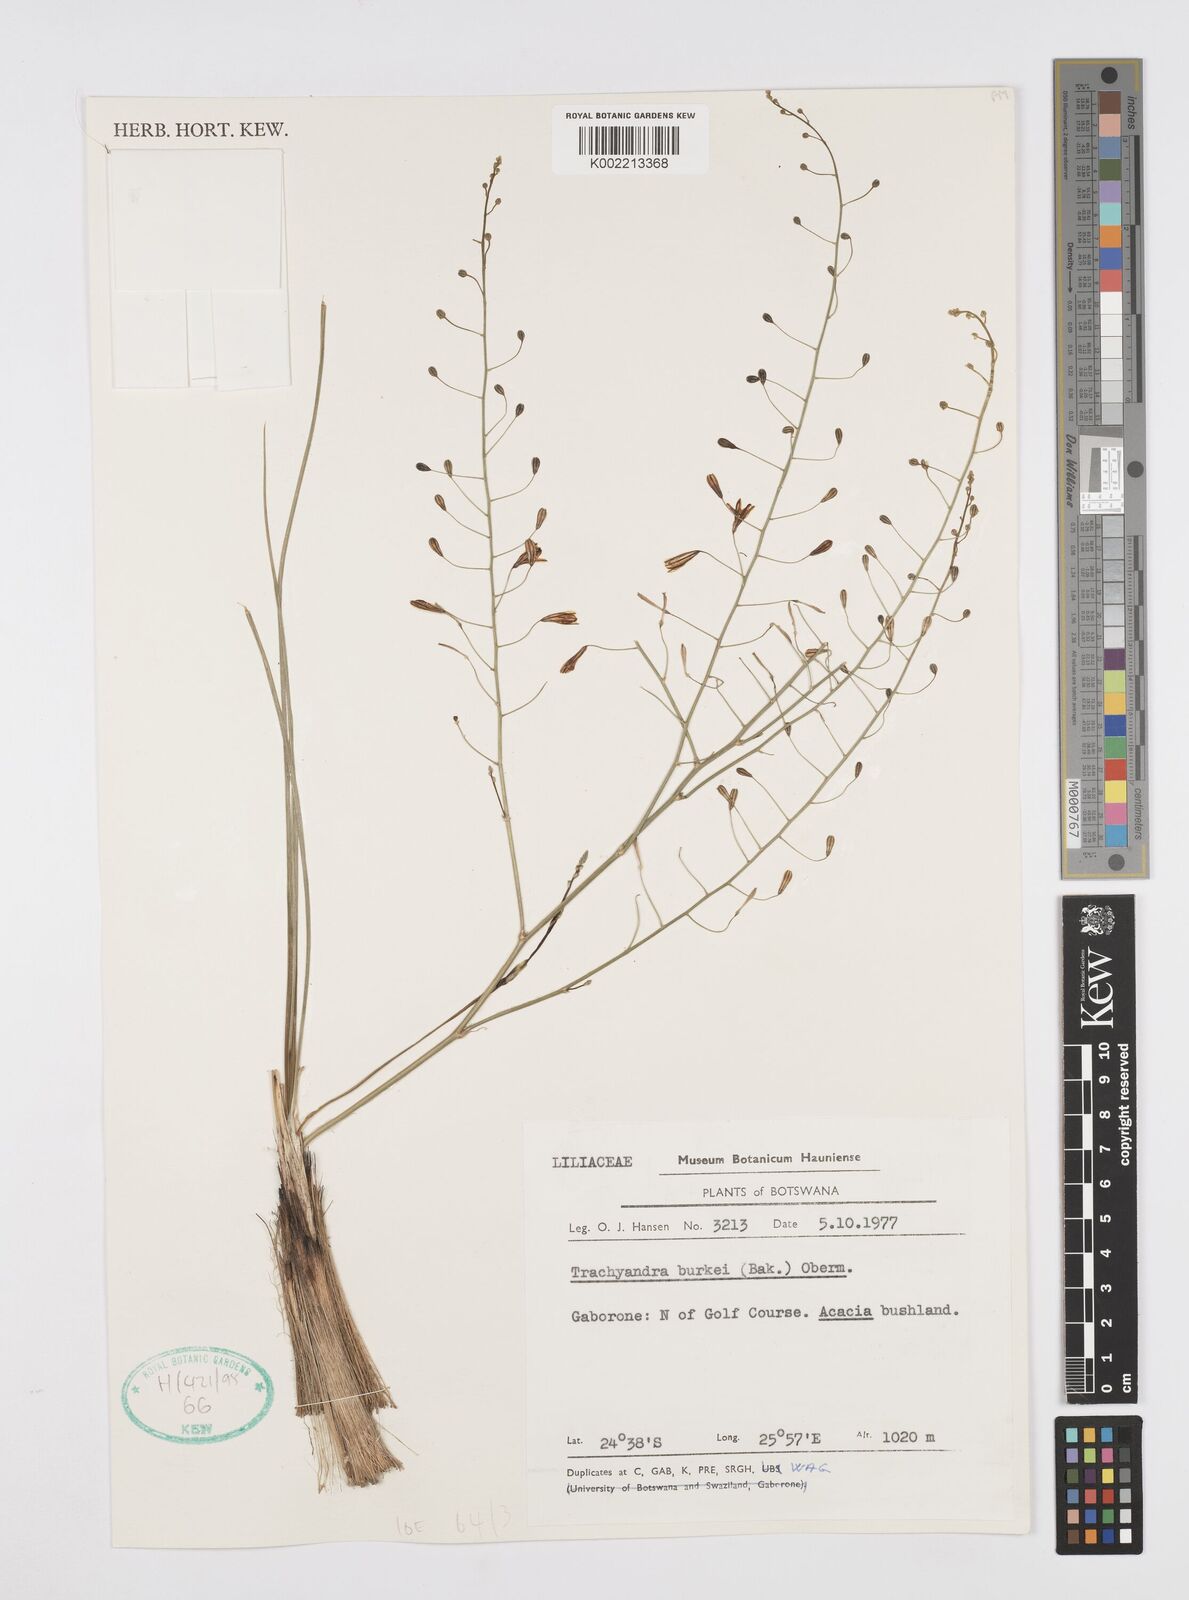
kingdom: Plantae
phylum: Tracheophyta
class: Liliopsida
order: Asparagales
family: Asphodelaceae
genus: Trachyandra
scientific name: Trachyandra burkei
